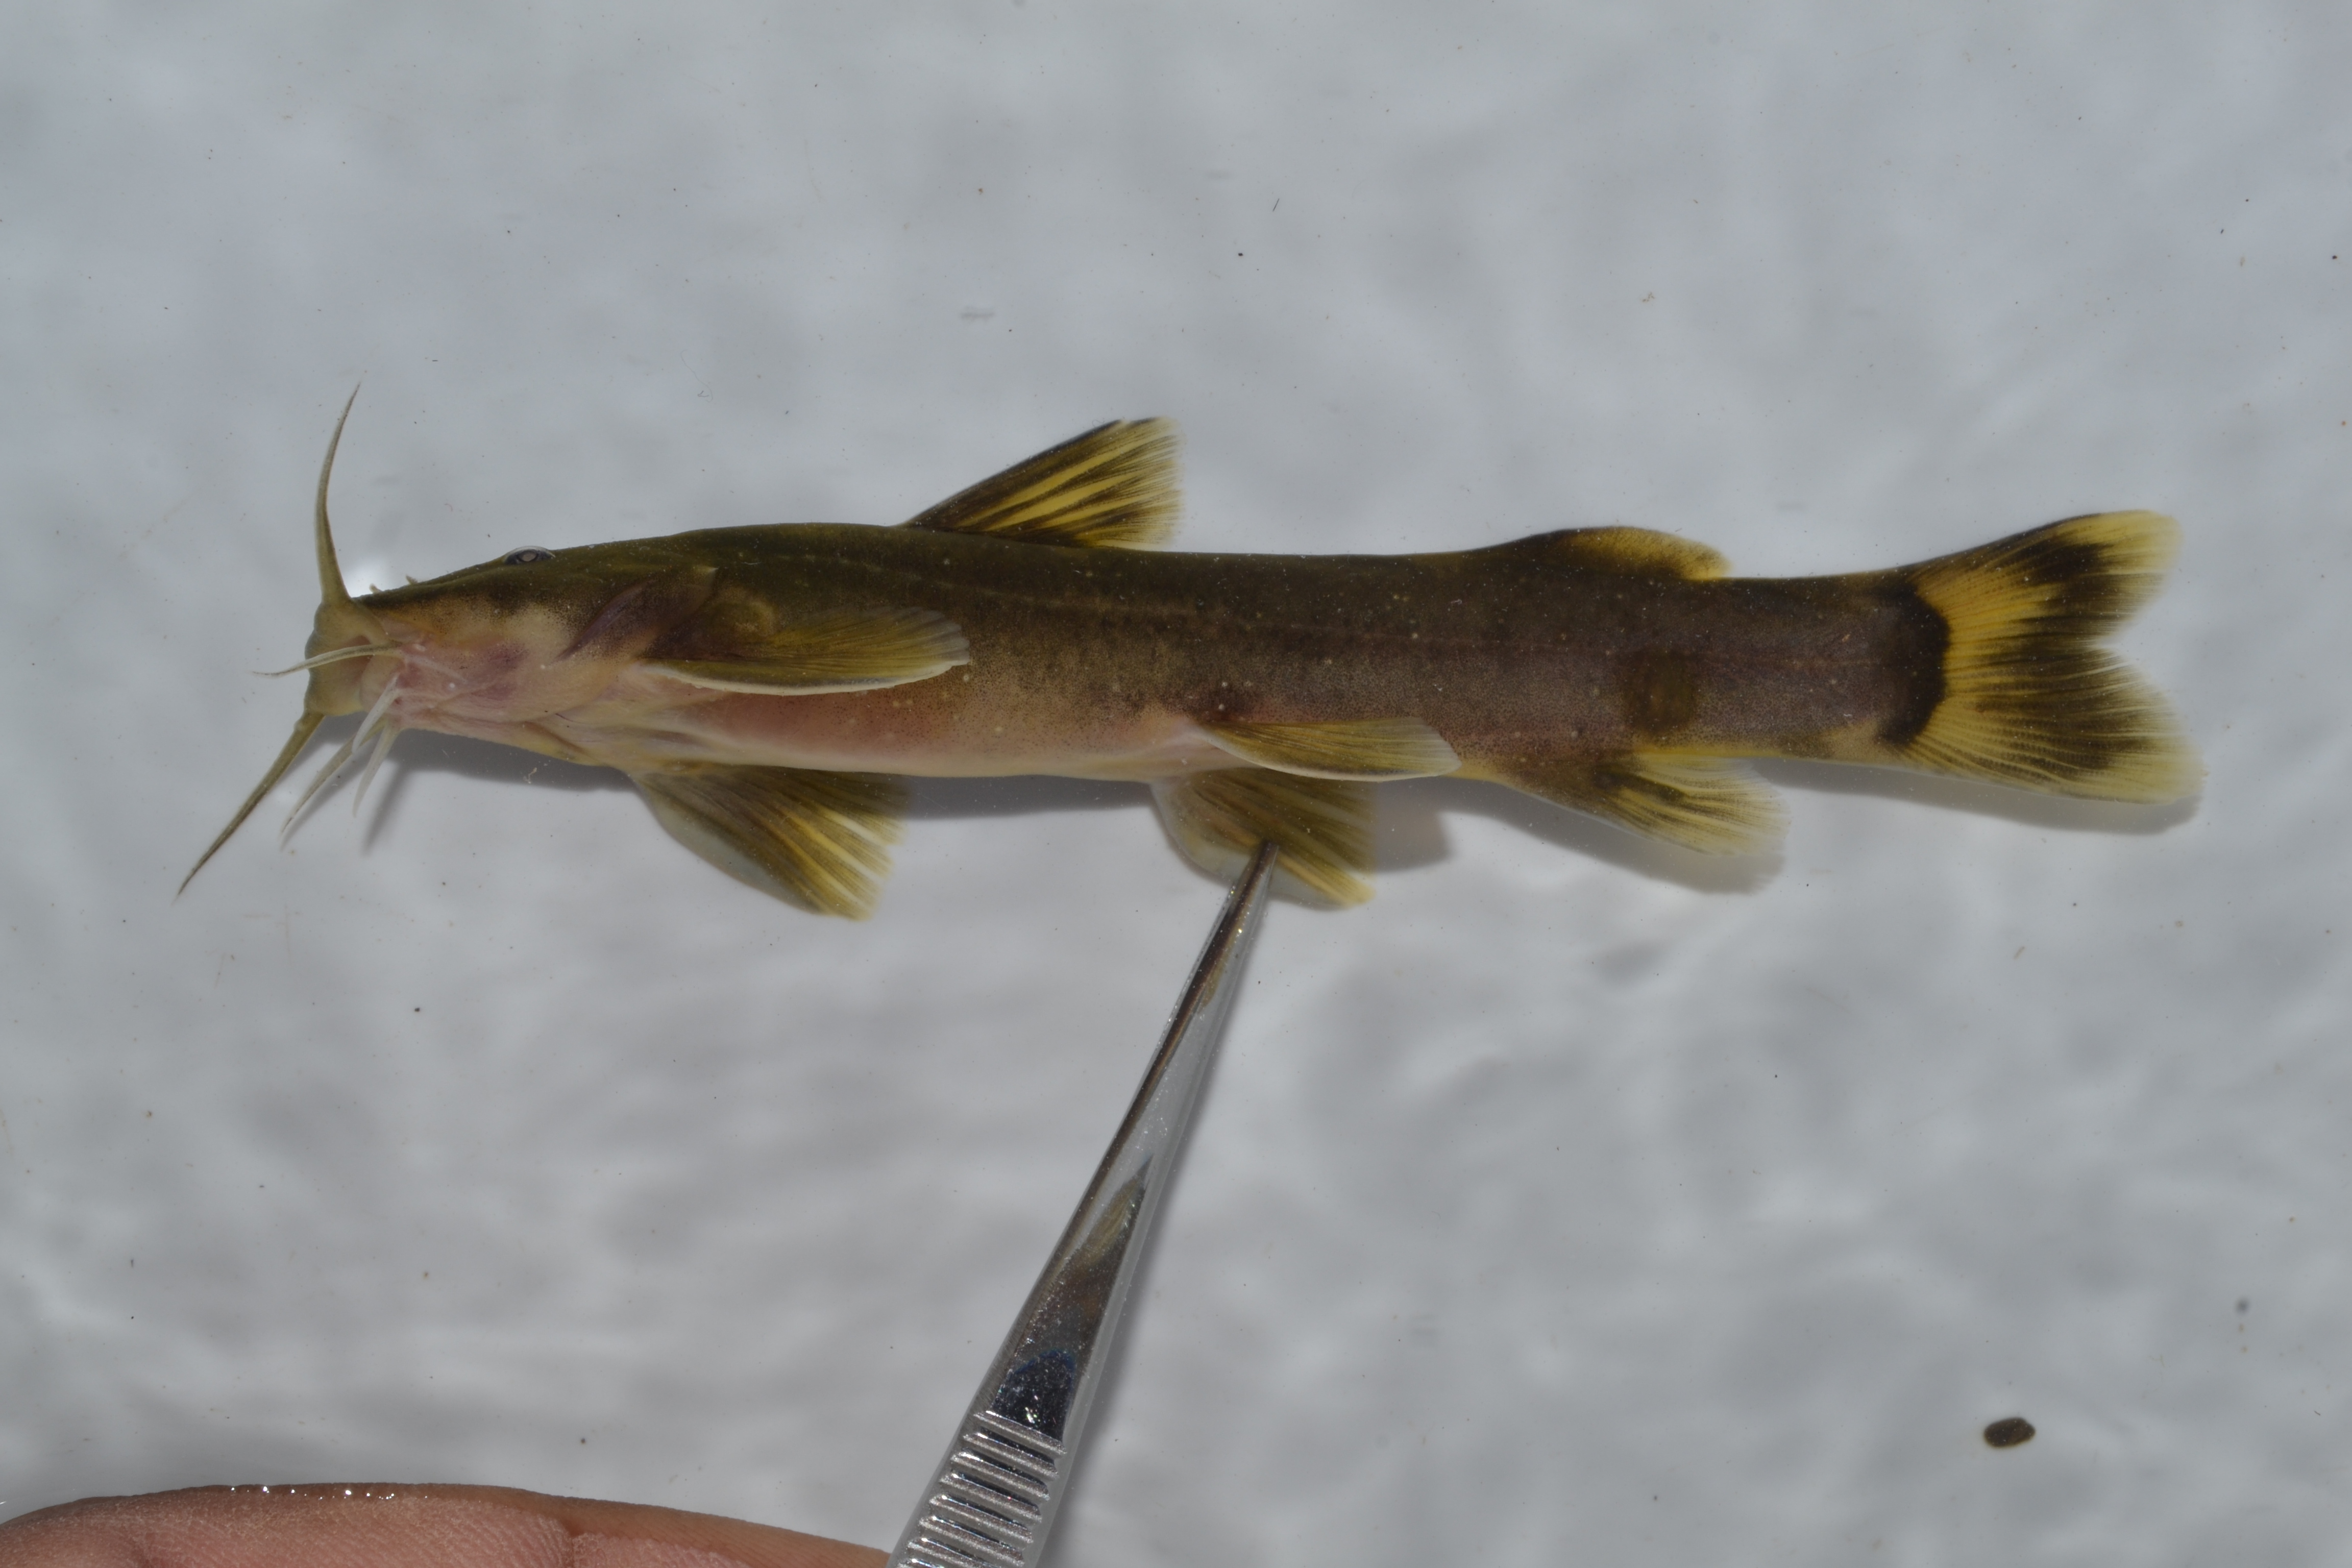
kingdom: Animalia
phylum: Chordata
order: Siluriformes
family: Amphiliidae
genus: Amphilius
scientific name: Amphilius uranoscopus
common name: Stargazer mountain catfish
